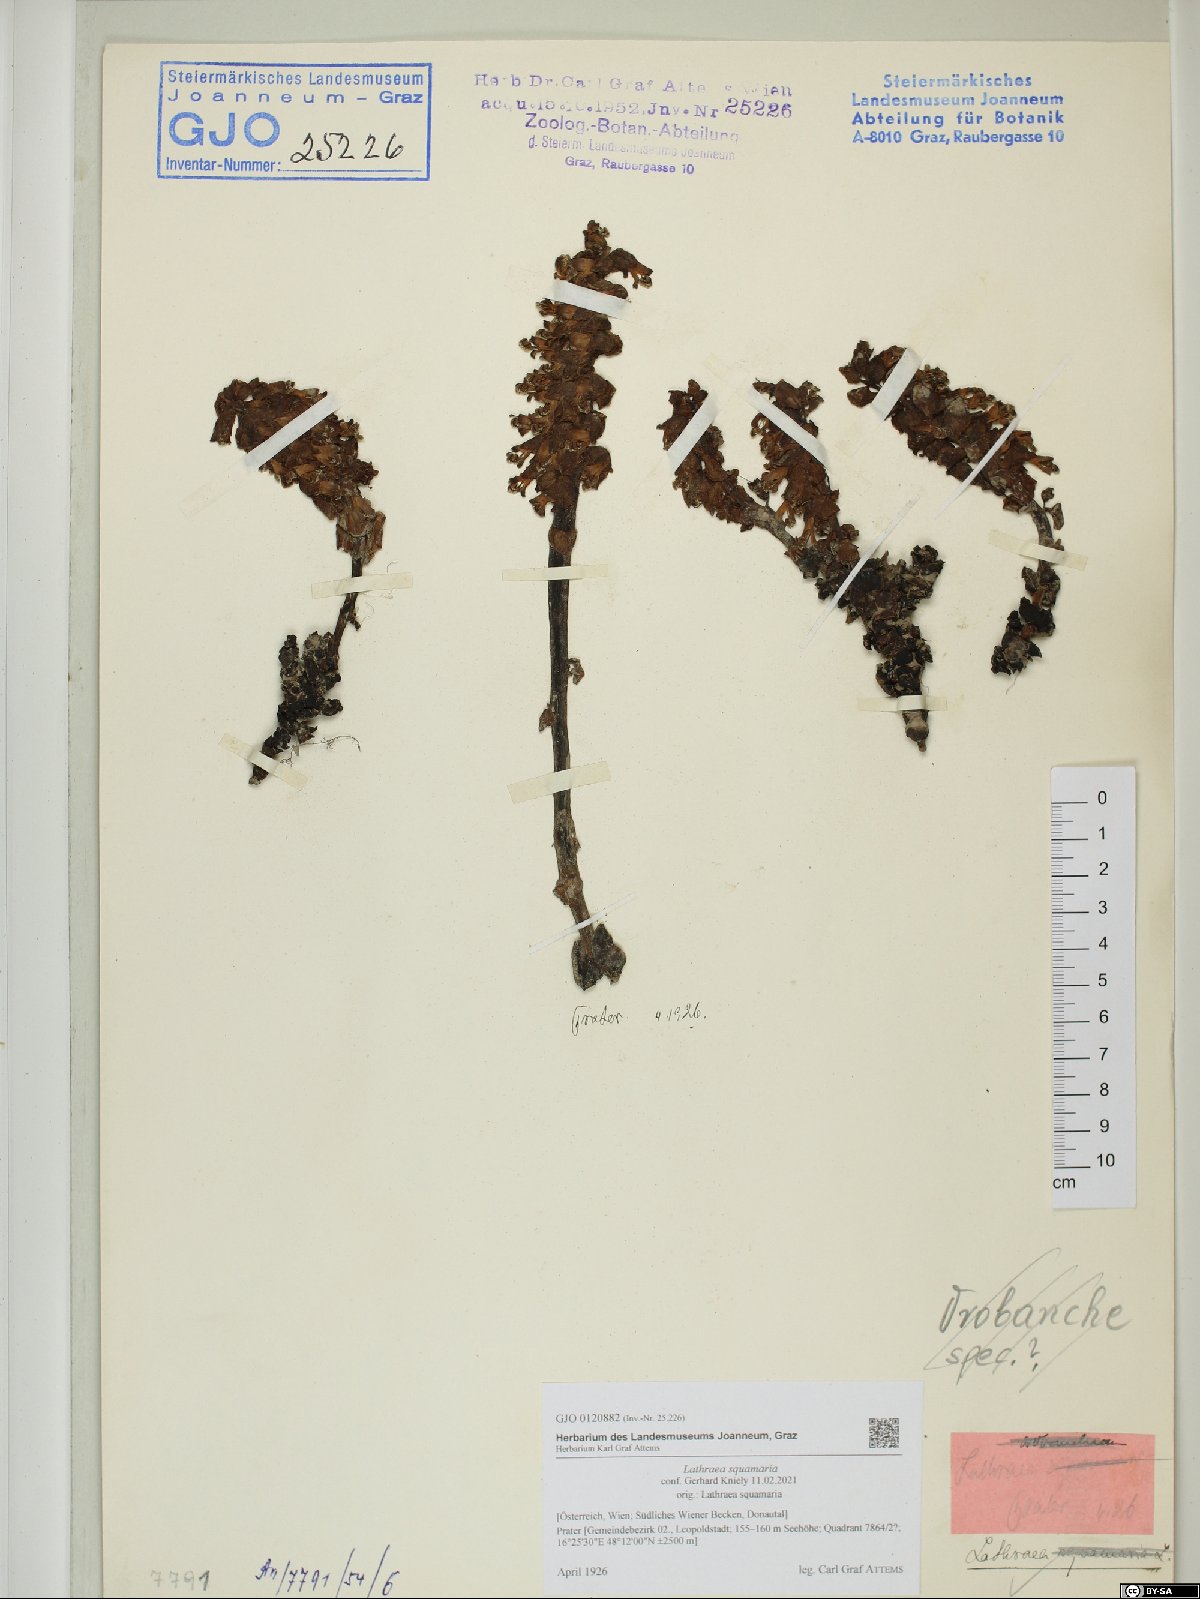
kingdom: Plantae
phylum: Tracheophyta
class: Magnoliopsida
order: Lamiales
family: Orobanchaceae
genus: Lathraea
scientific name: Lathraea squamaria
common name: Toothwort
